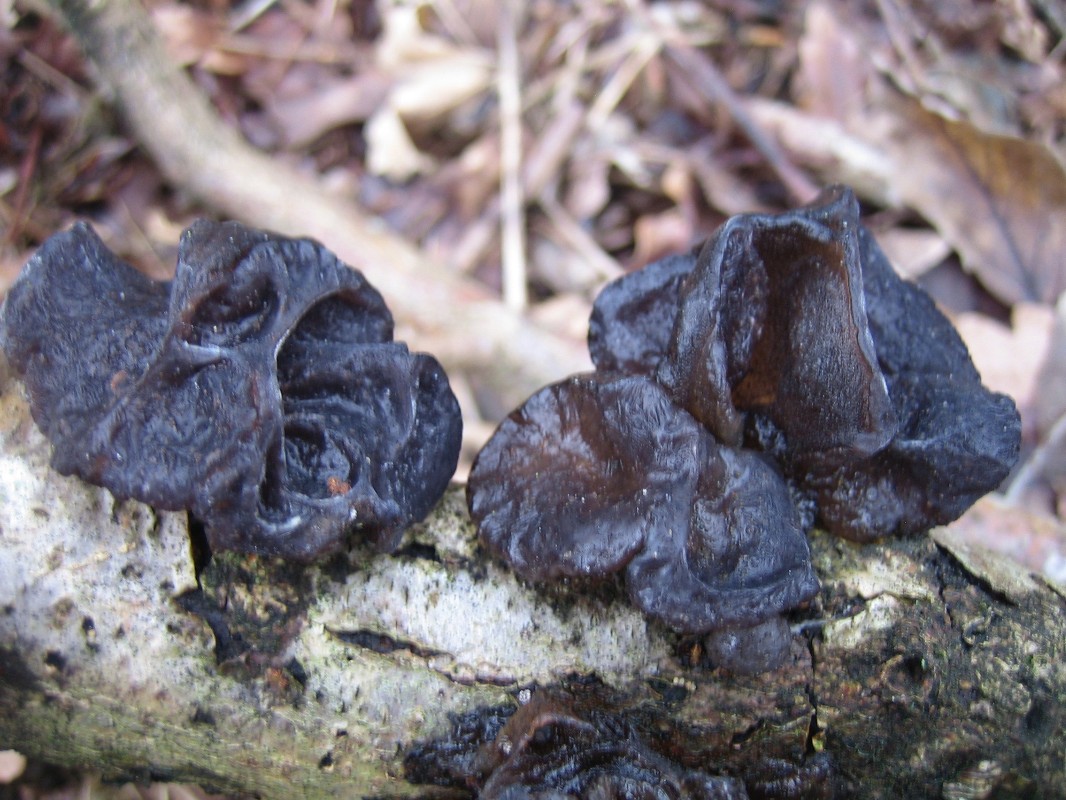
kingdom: Fungi
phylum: Basidiomycota
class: Agaricomycetes
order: Auriculariales
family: Auriculariaceae
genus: Exidia
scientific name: Exidia glandulosa
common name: ege-bævretop
